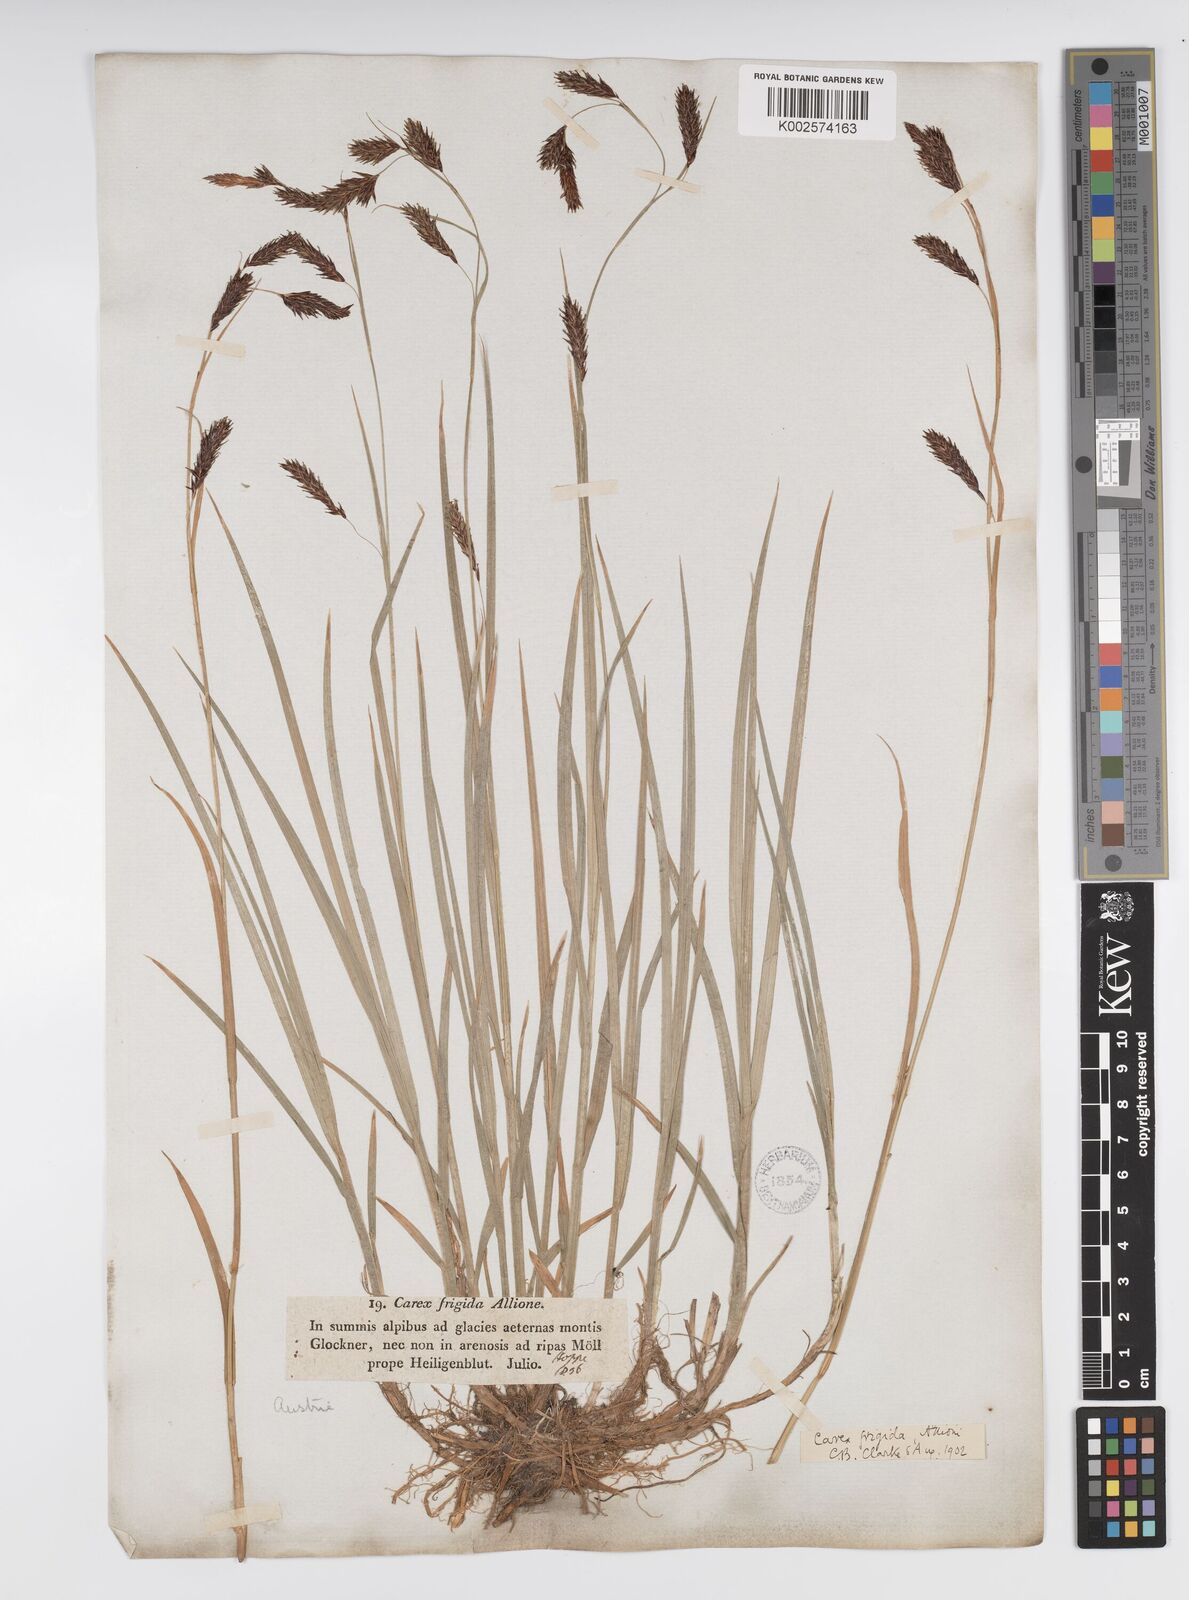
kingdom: Plantae
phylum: Tracheophyta
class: Liliopsida
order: Poales
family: Cyperaceae
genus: Carex
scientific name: Carex frigida
